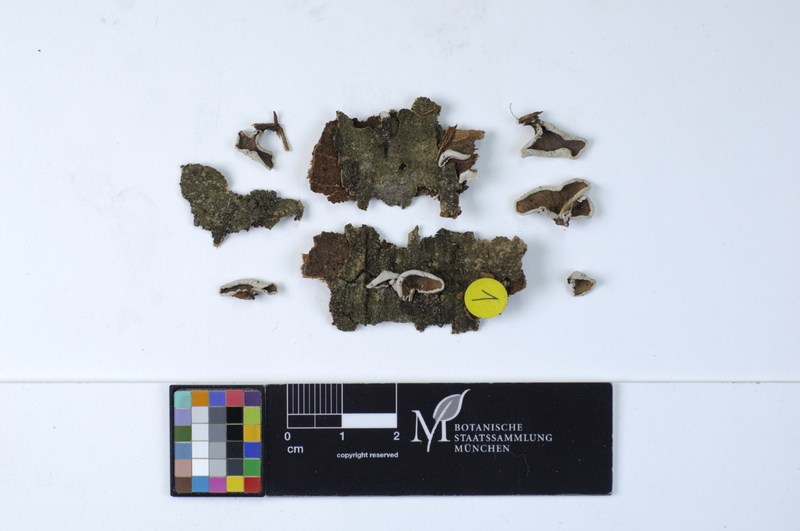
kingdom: Fungi
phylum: Basidiomycota
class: Agaricomycetes
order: Agaricales
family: Schizophyllaceae
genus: Schizophyllum
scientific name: Schizophyllum amplum
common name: Poplar bells
